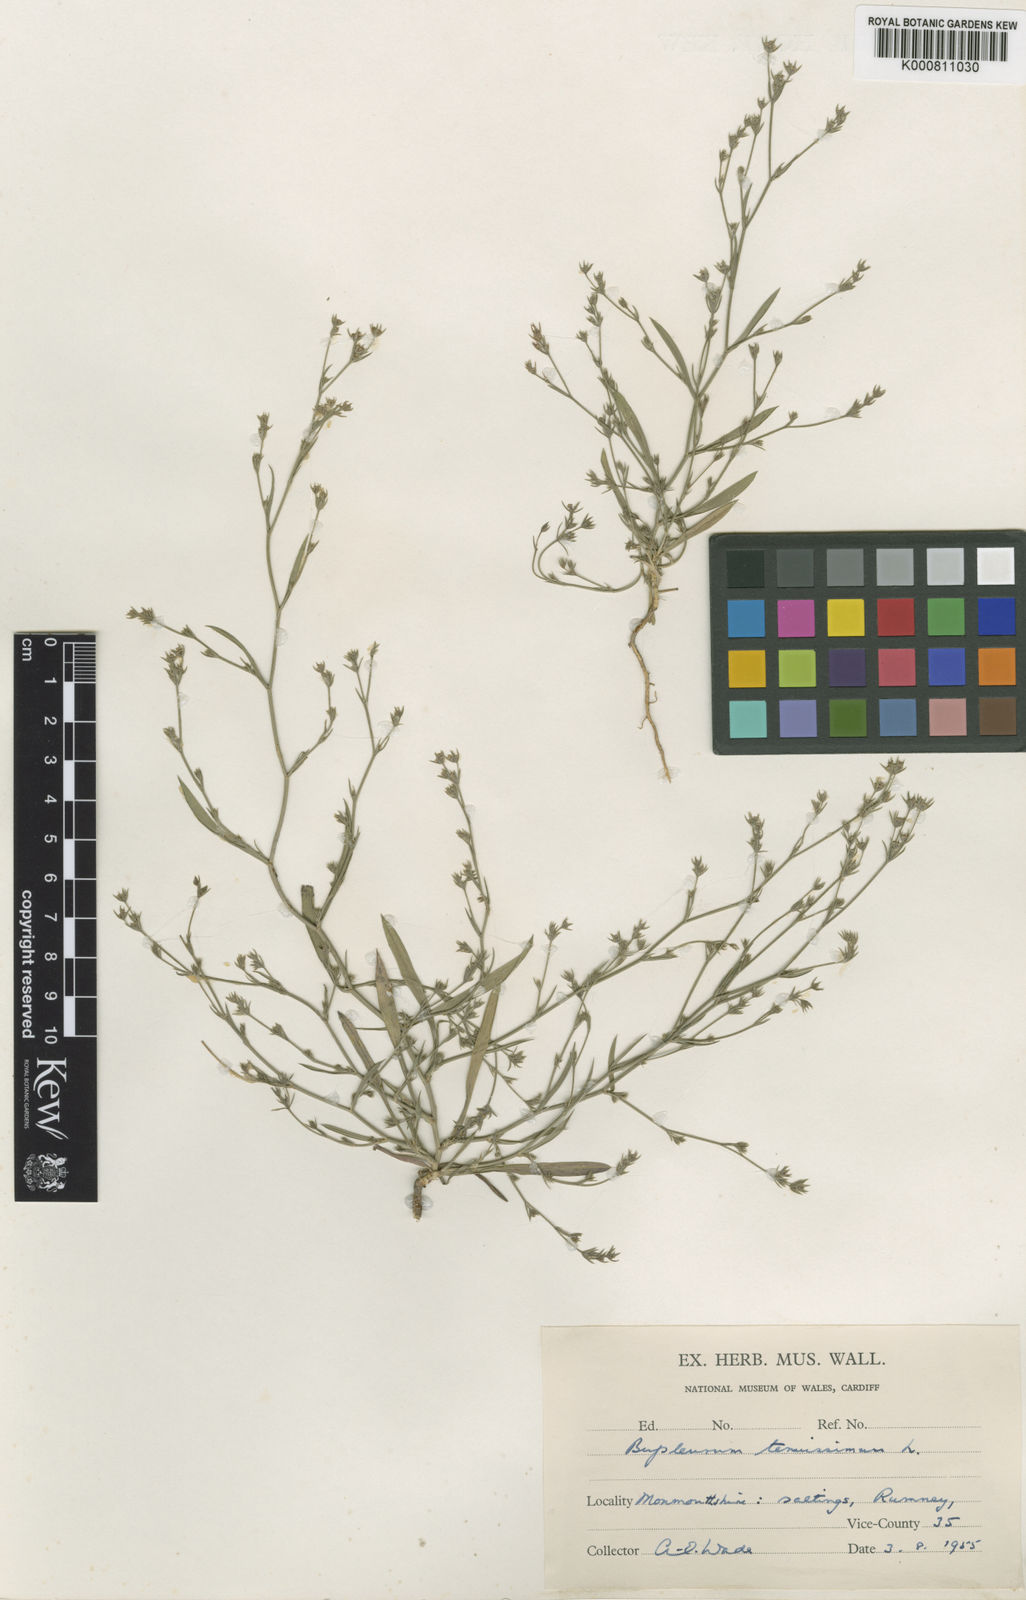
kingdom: Plantae
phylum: Tracheophyta
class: Magnoliopsida
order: Apiales
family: Apiaceae
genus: Bupleurum
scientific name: Bupleurum tenuissimum
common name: Slender hare's-ear
